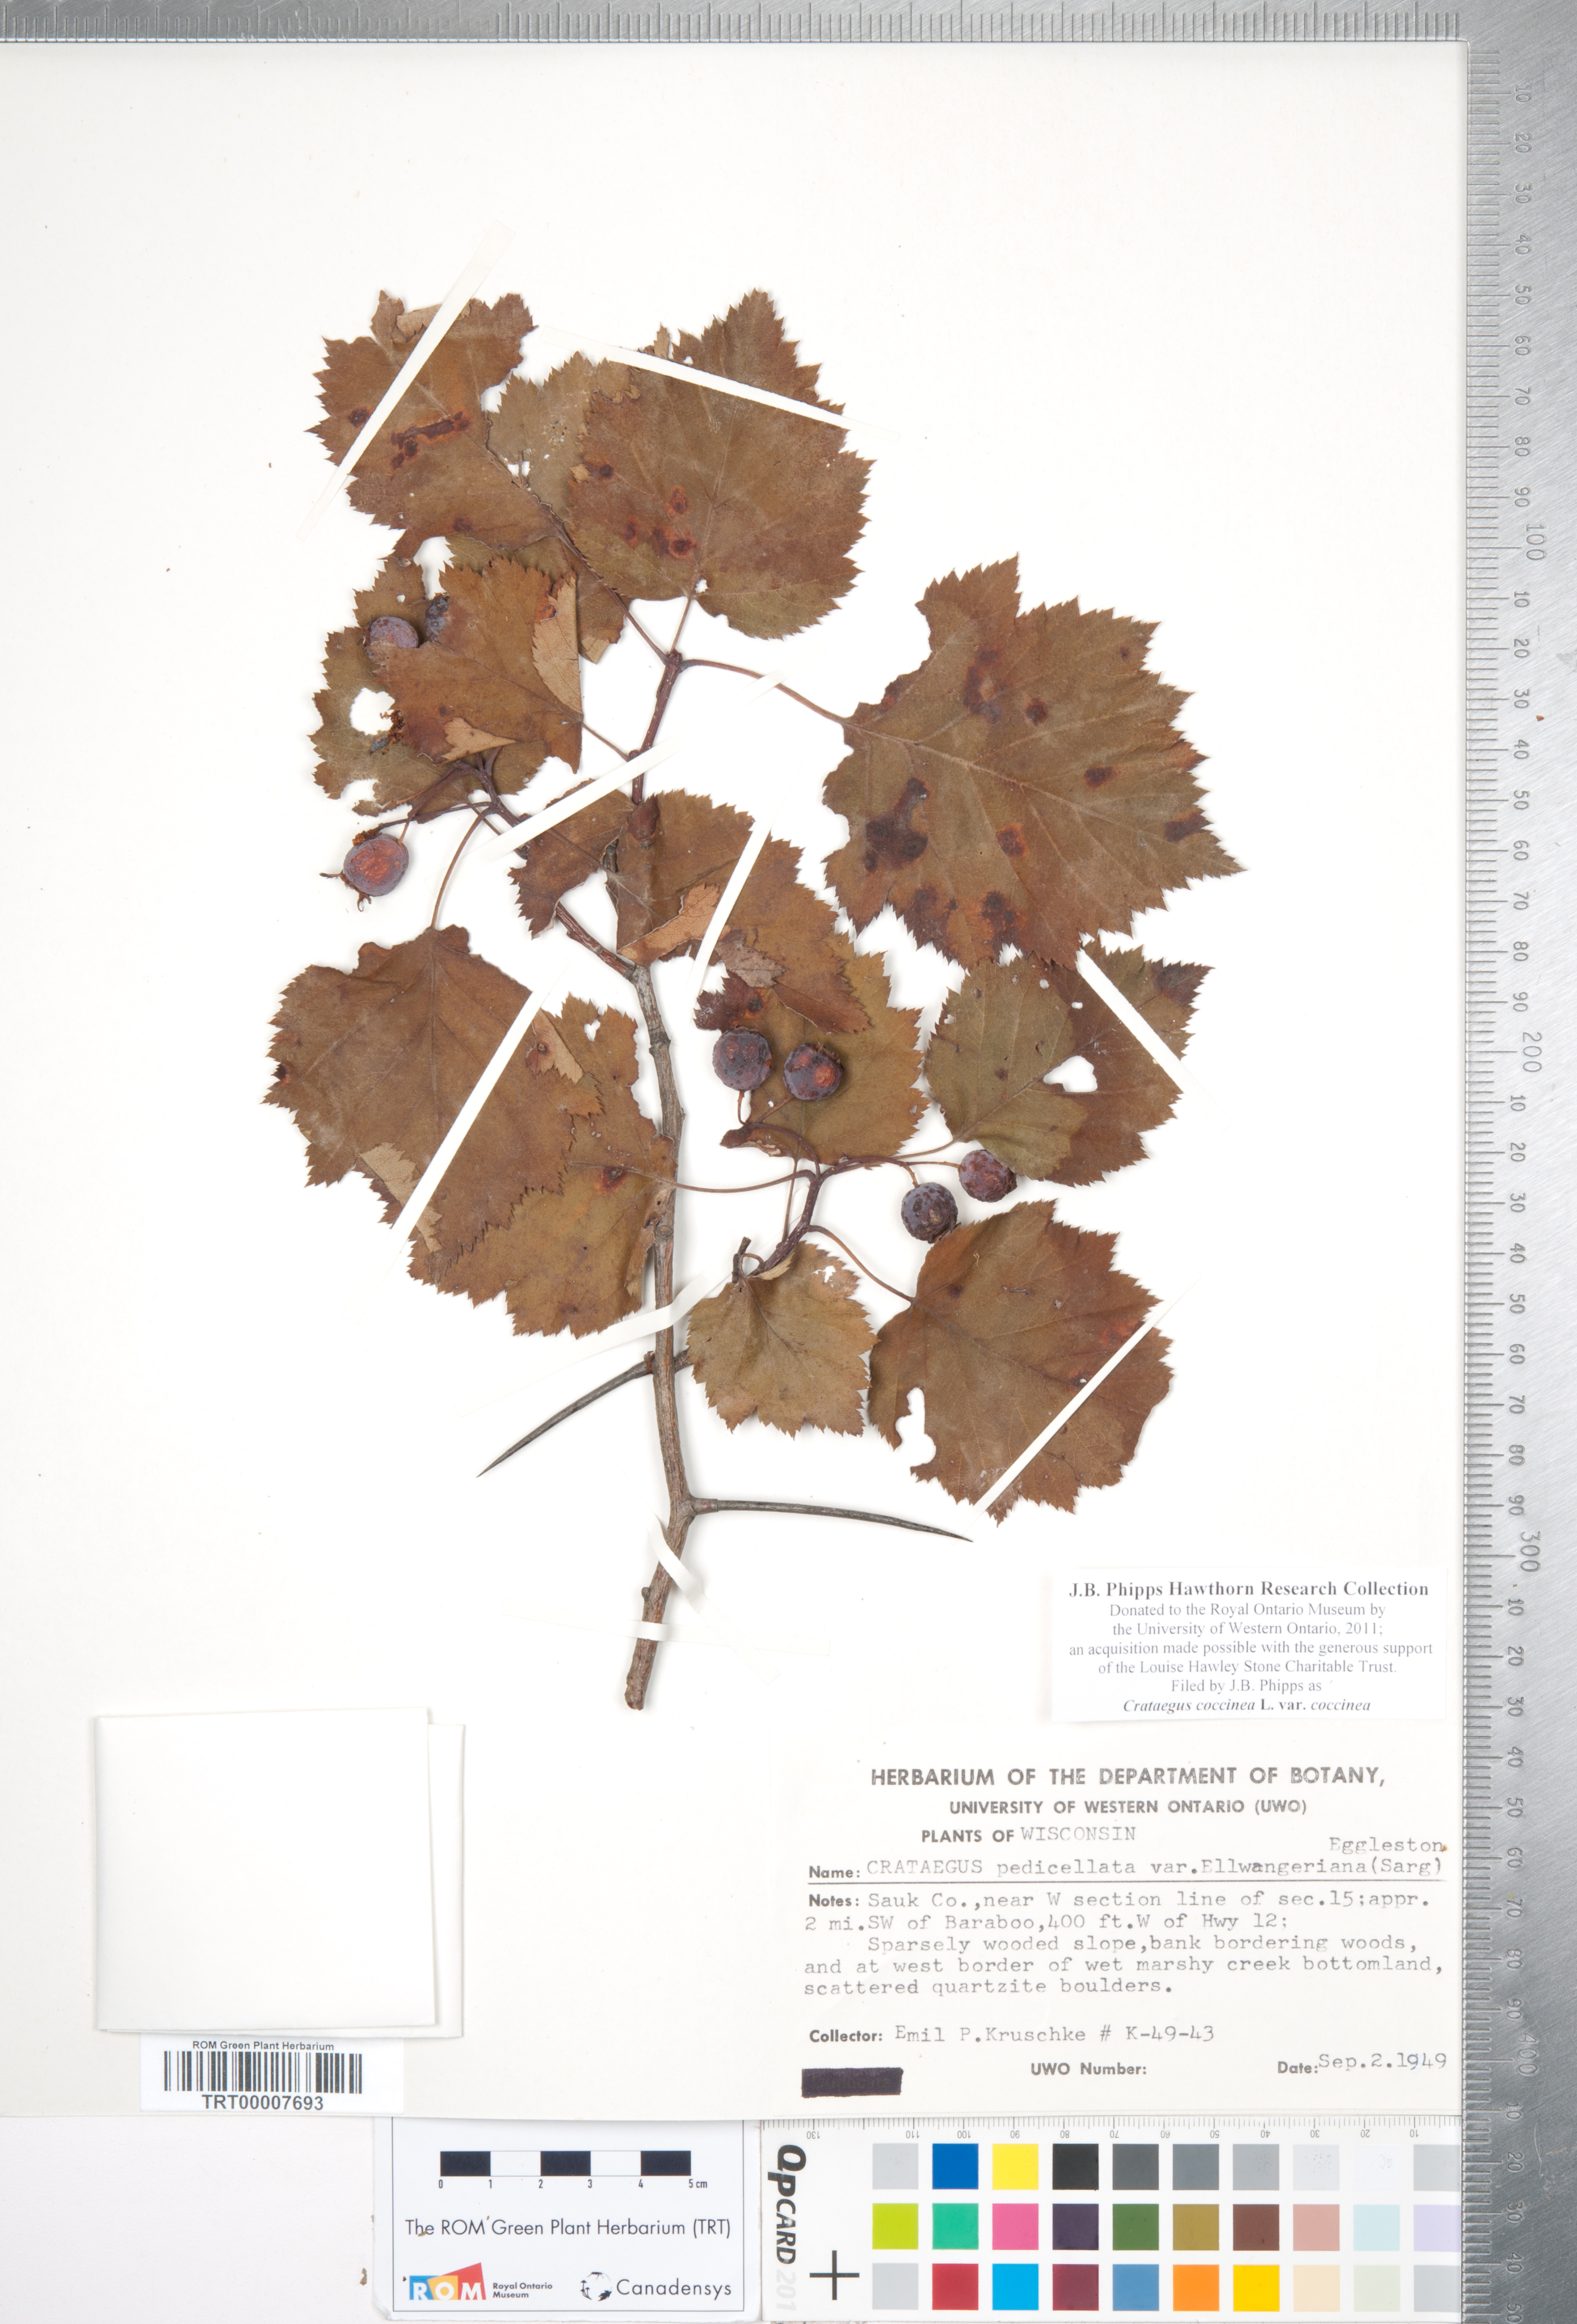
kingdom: Plantae
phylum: Tracheophyta
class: Magnoliopsida
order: Rosales
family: Rosaceae
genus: Crataegus
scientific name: Crataegus coccinea
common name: Scarlet hawthorn
